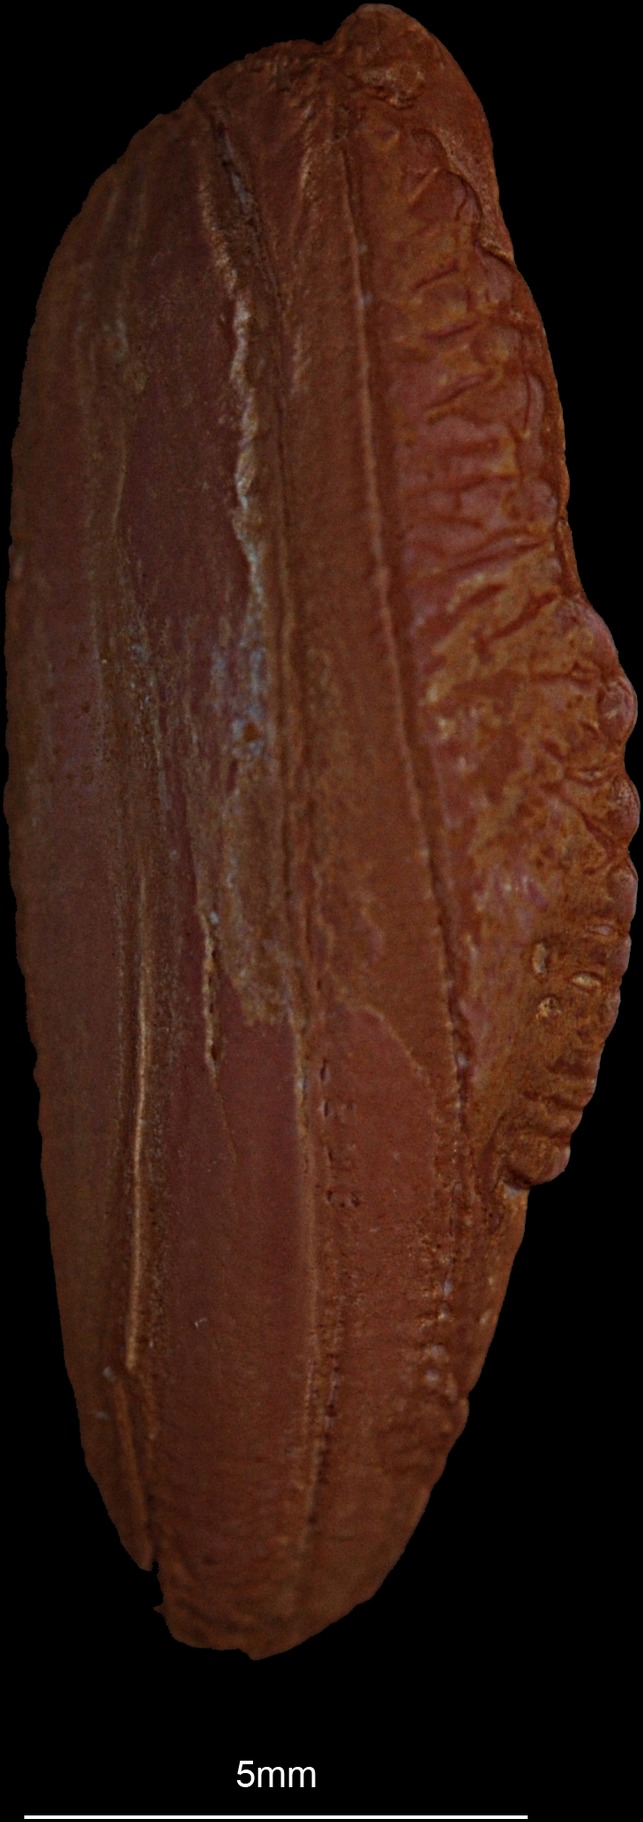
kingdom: Animalia
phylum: Chordata
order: Gadiformes
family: Phycidae
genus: Phycis
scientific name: Phycis blennoides
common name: Forked hake
